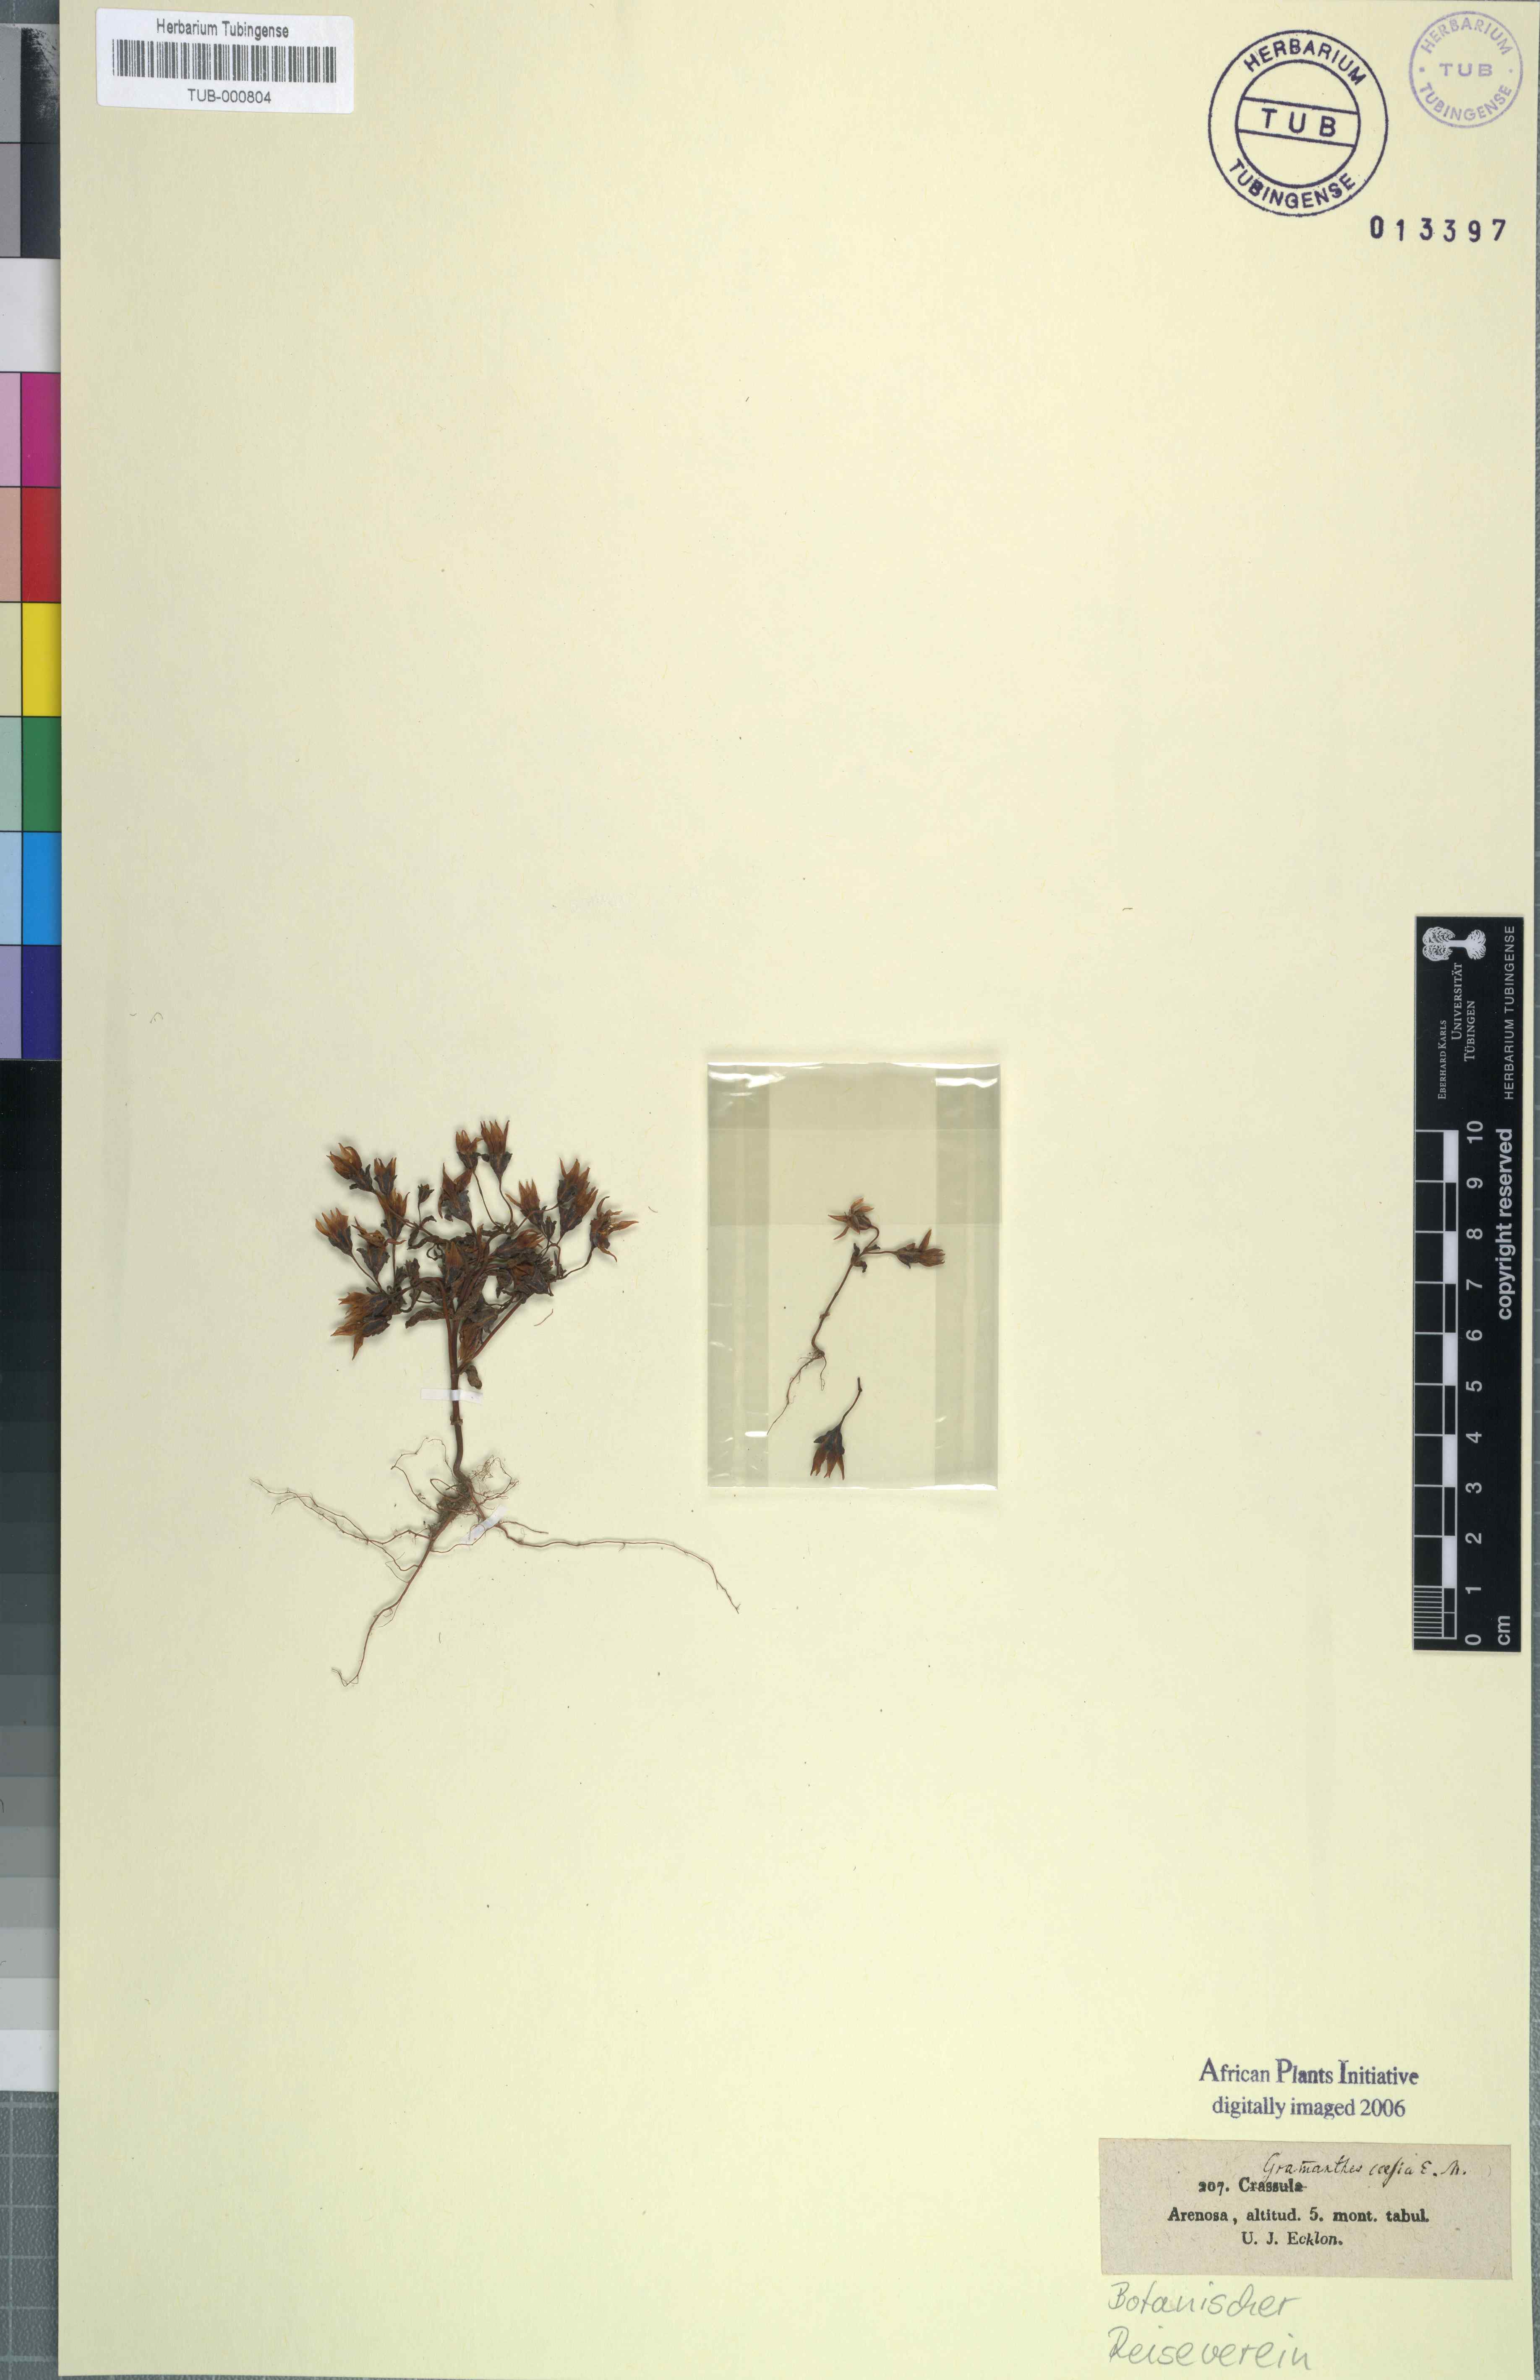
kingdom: Plantae
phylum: Tracheophyta
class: Magnoliopsida
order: Saxifragales
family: Crassulaceae
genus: Crassula
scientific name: Crassula dichotoma
